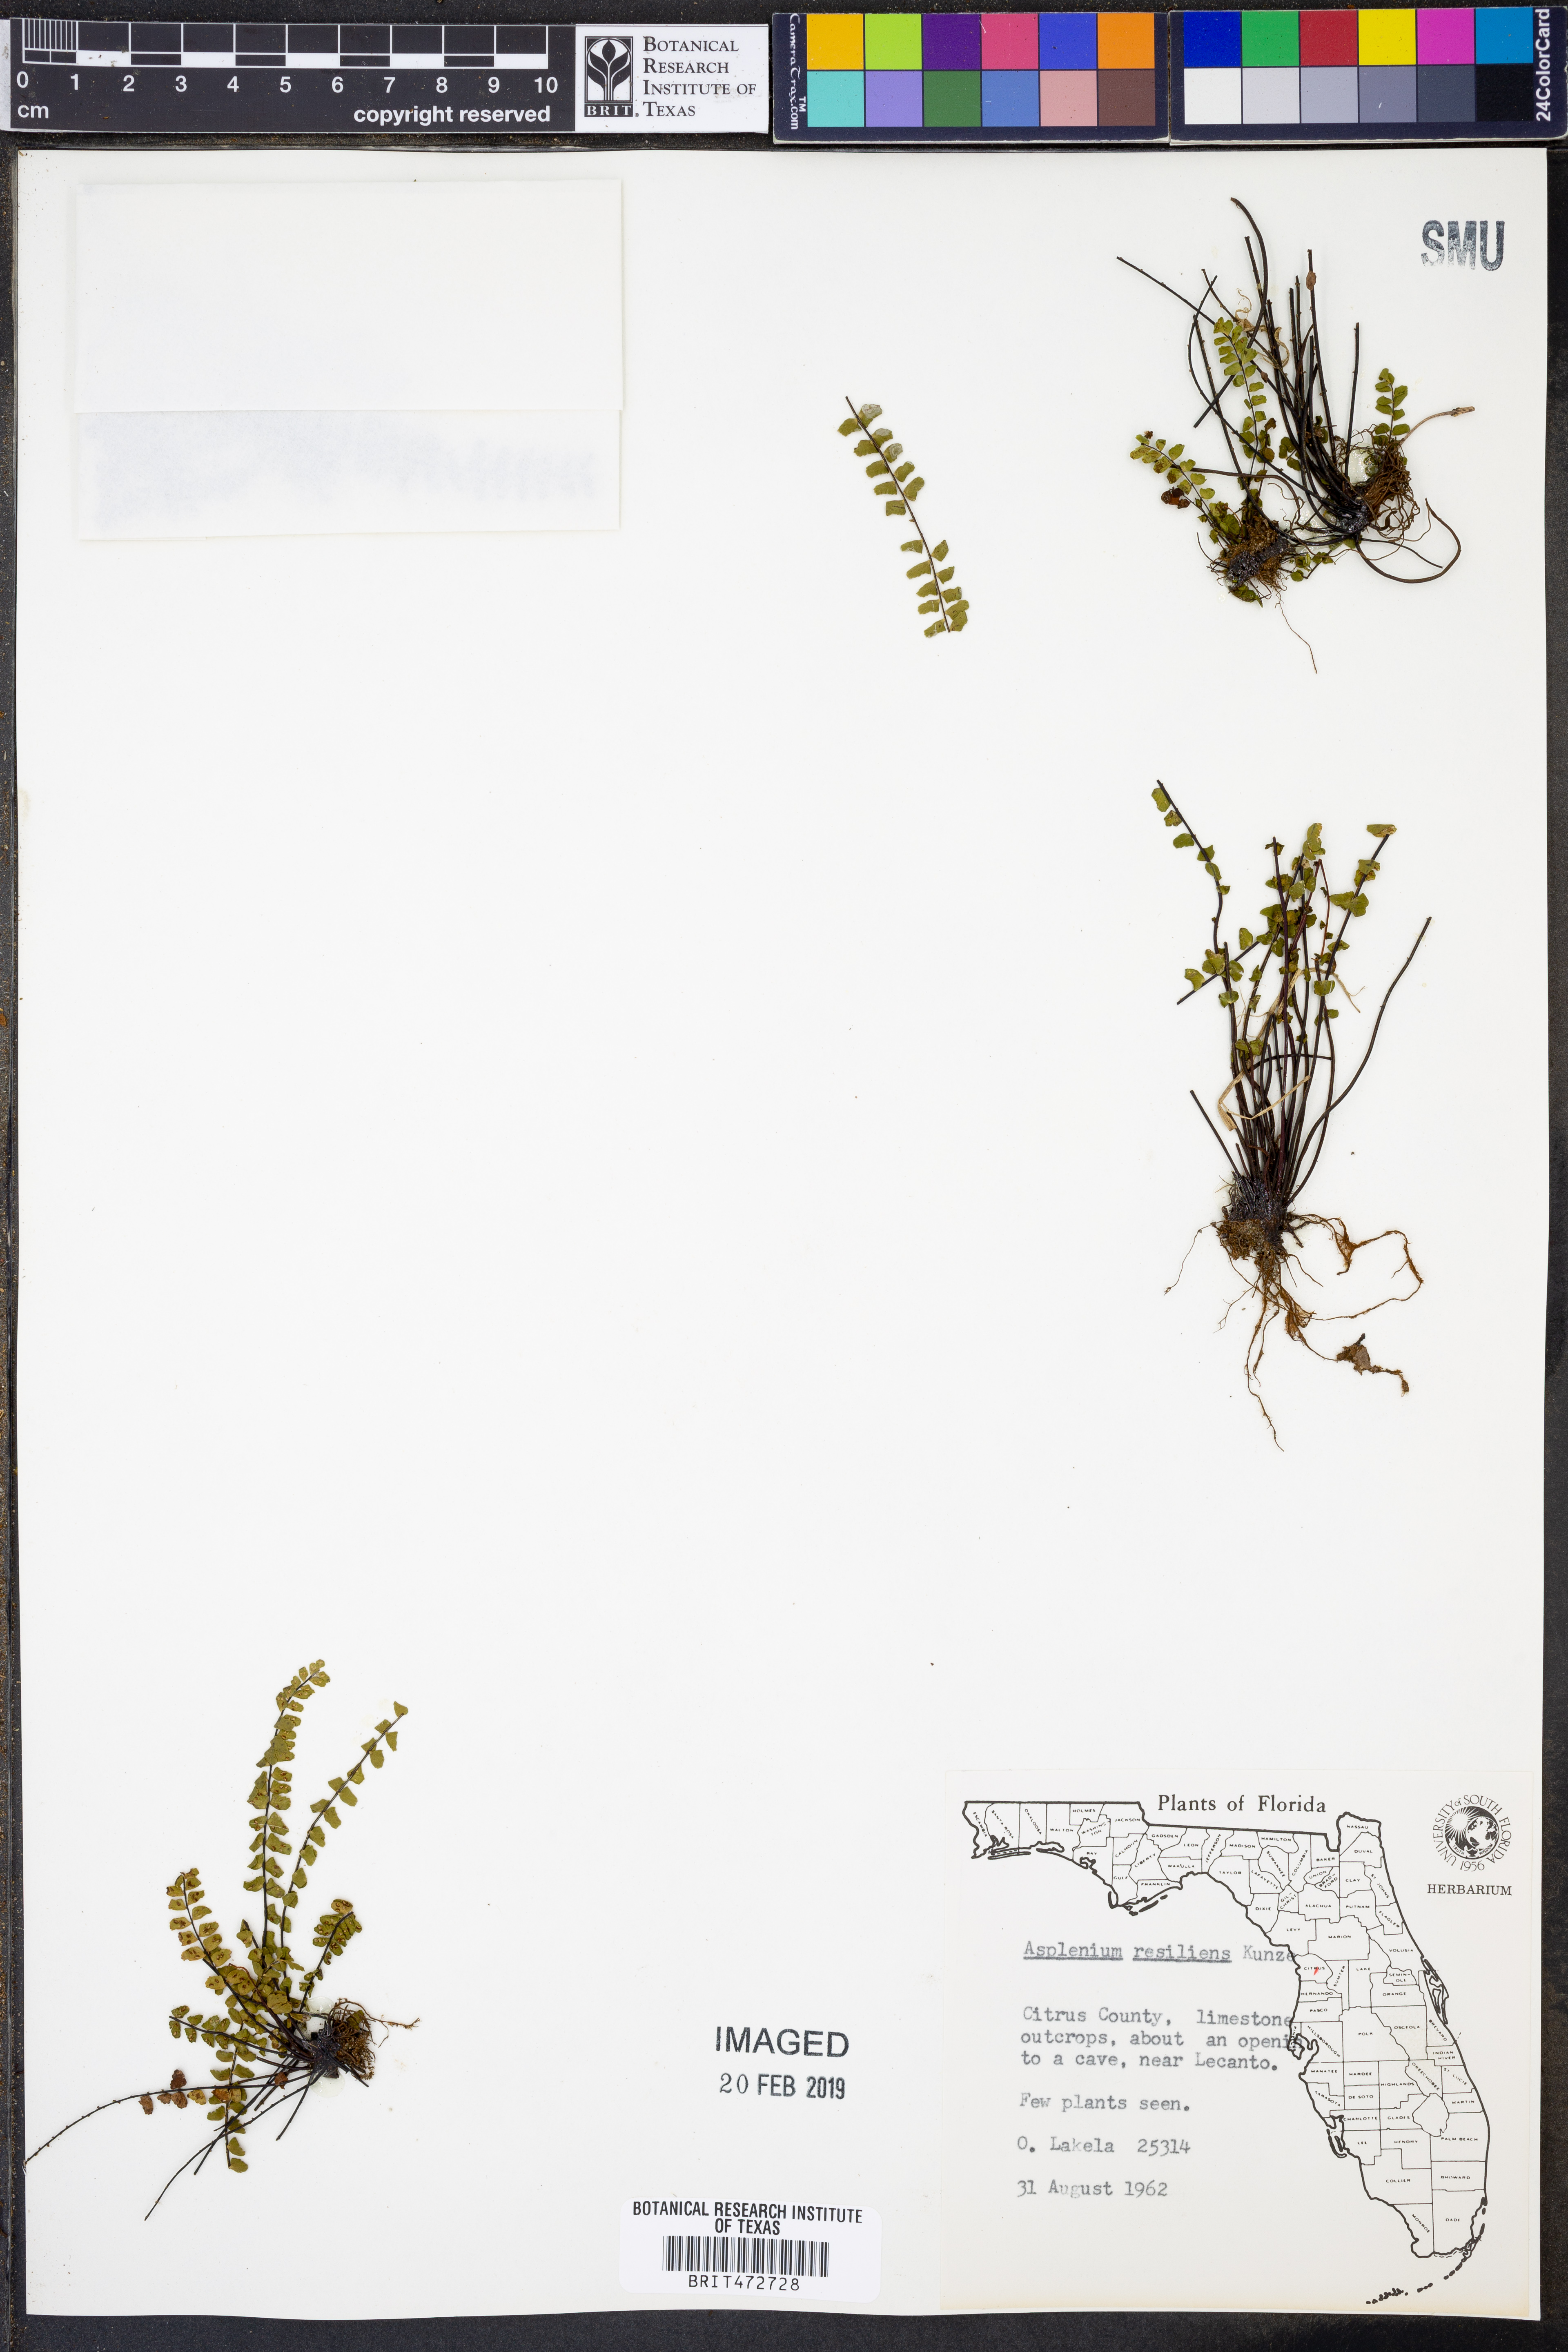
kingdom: Plantae
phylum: Tracheophyta
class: Polypodiopsida
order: Polypodiales
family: Aspleniaceae
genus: Asplenium
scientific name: Asplenium resiliens
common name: Blackstem spleenwort
